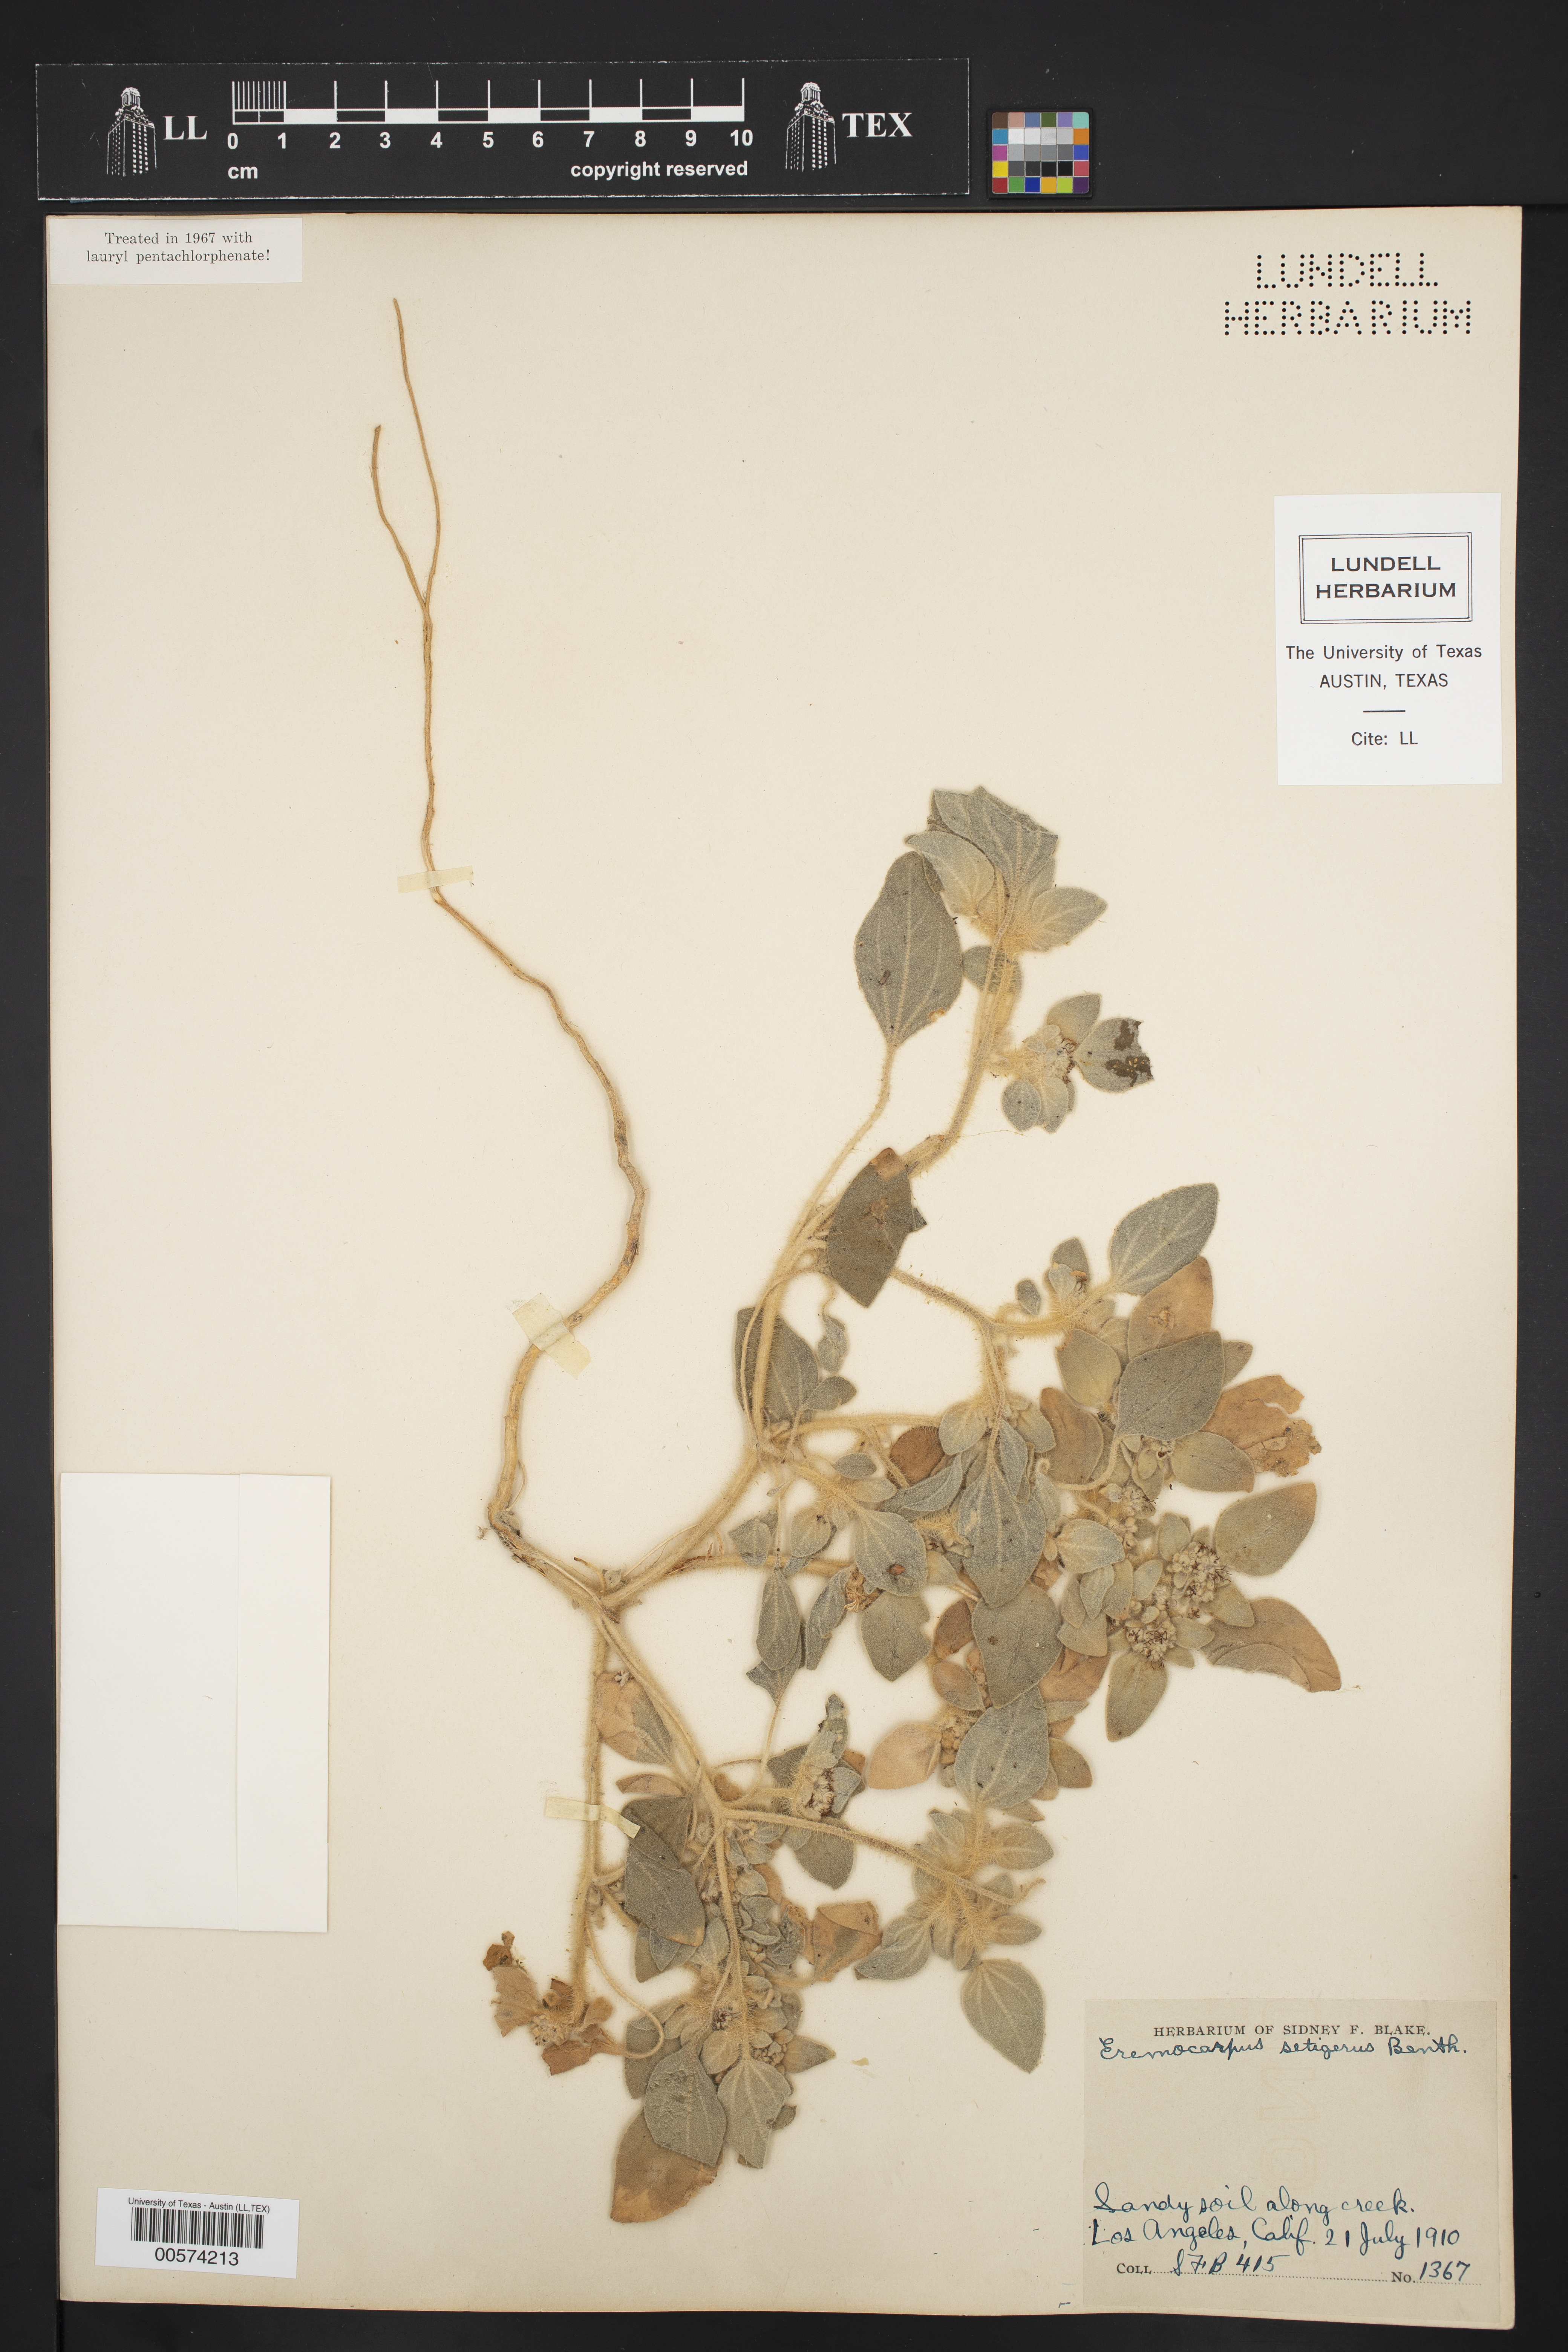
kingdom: Plantae
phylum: Tracheophyta
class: Magnoliopsida
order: Malpighiales
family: Euphorbiaceae
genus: Croton
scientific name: Croton setiger
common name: Dove weed
